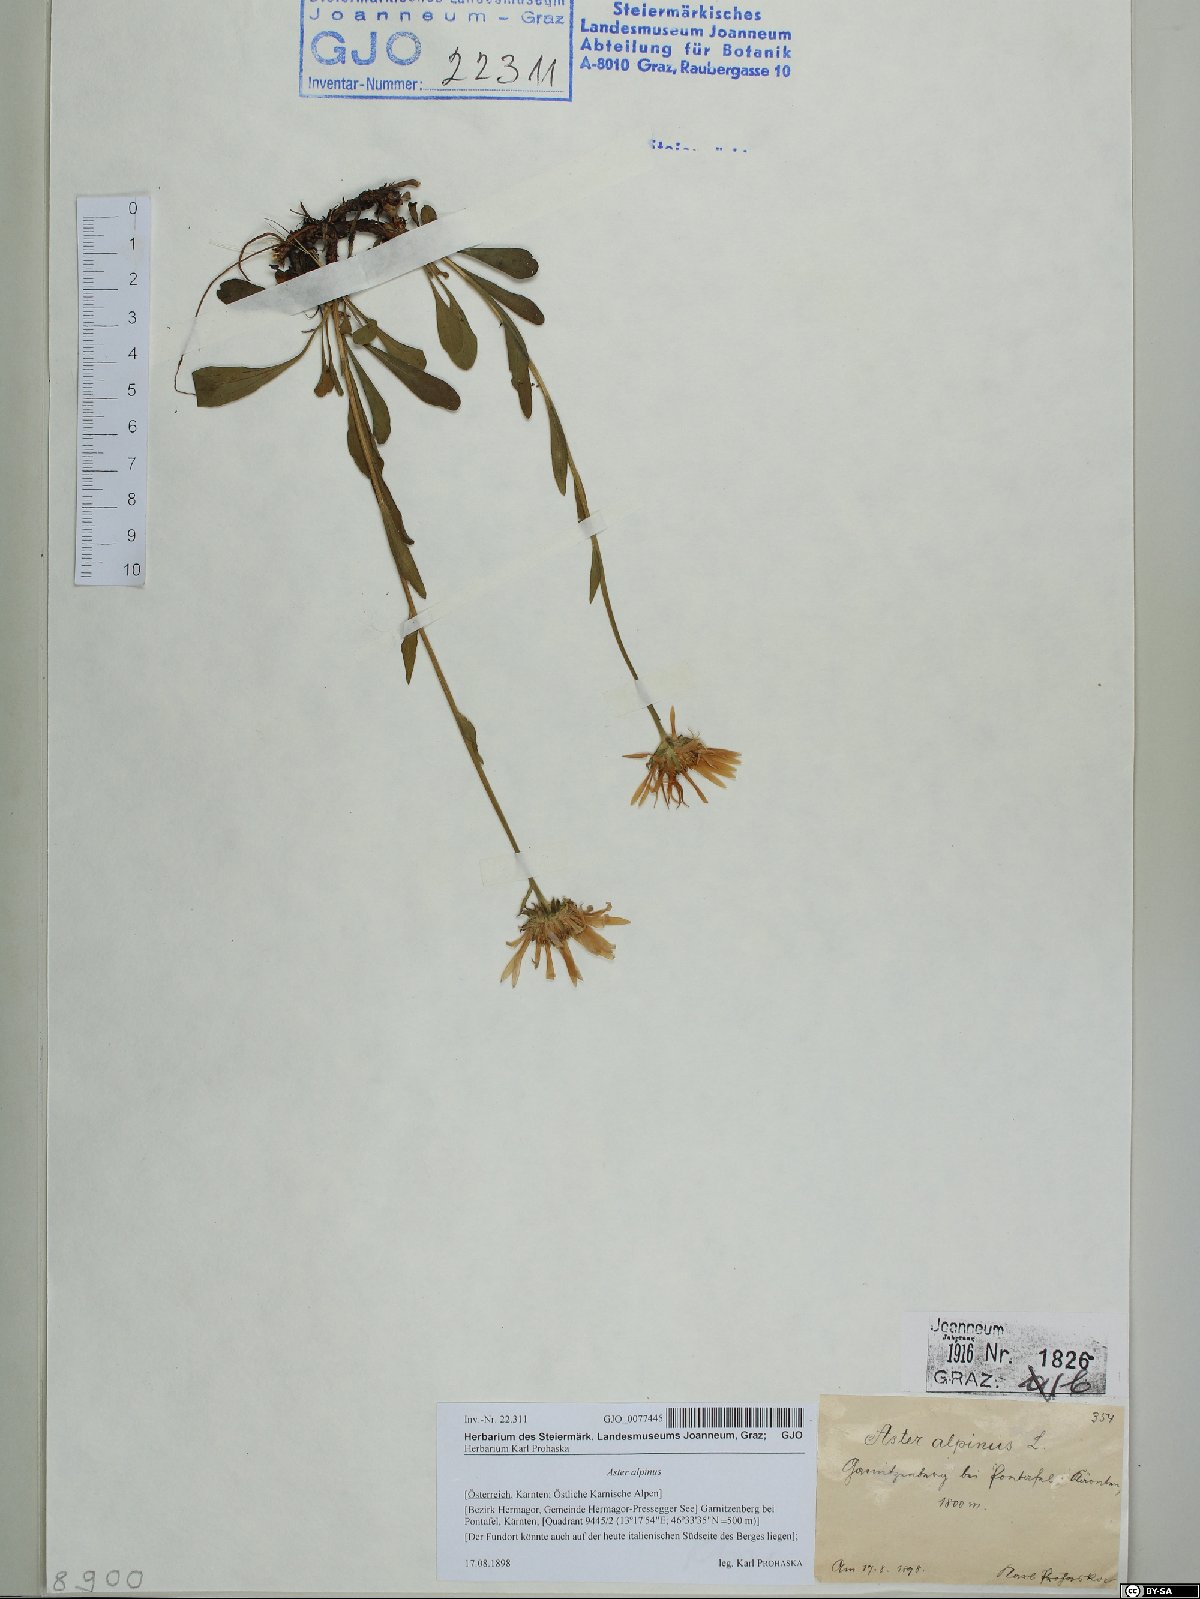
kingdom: Plantae
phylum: Tracheophyta
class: Magnoliopsida
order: Asterales
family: Asteraceae
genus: Aster
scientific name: Aster alpinus
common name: Alpine aster
